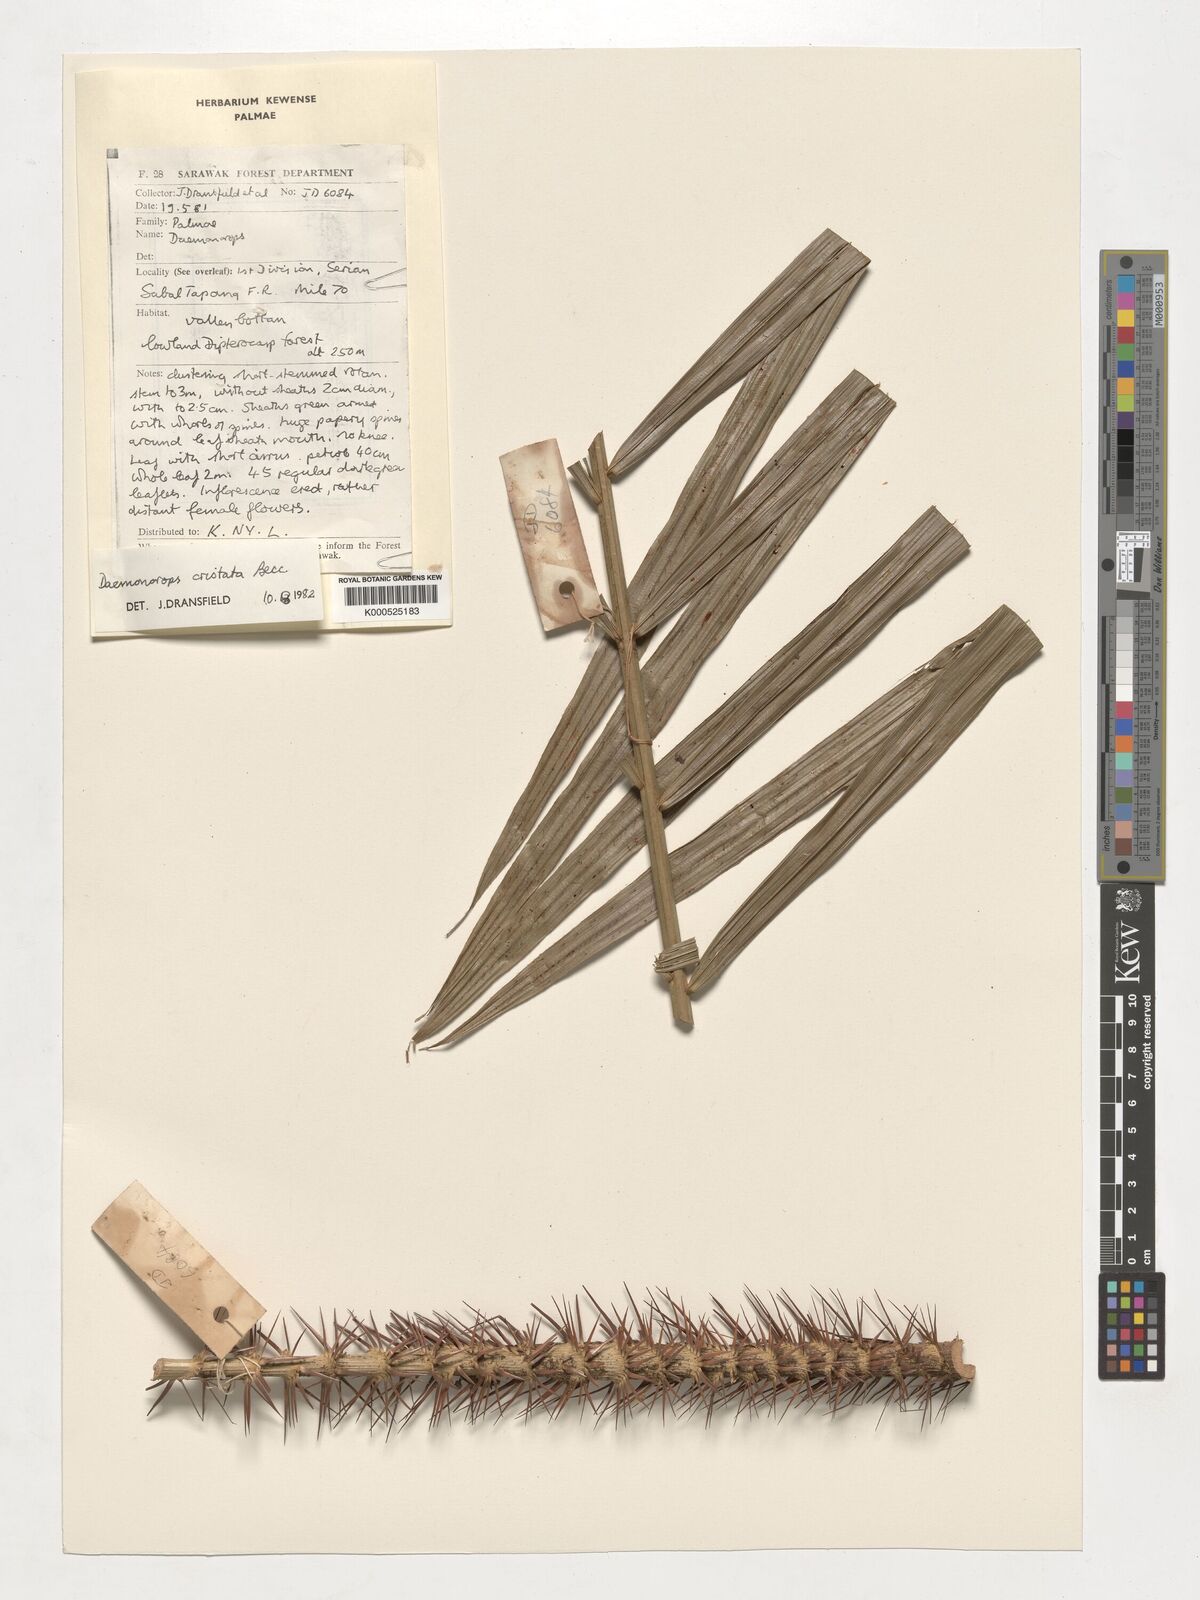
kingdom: Plantae
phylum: Tracheophyta
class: Liliopsida
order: Arecales
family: Arecaceae
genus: Calamus
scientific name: Calamus cristatus
